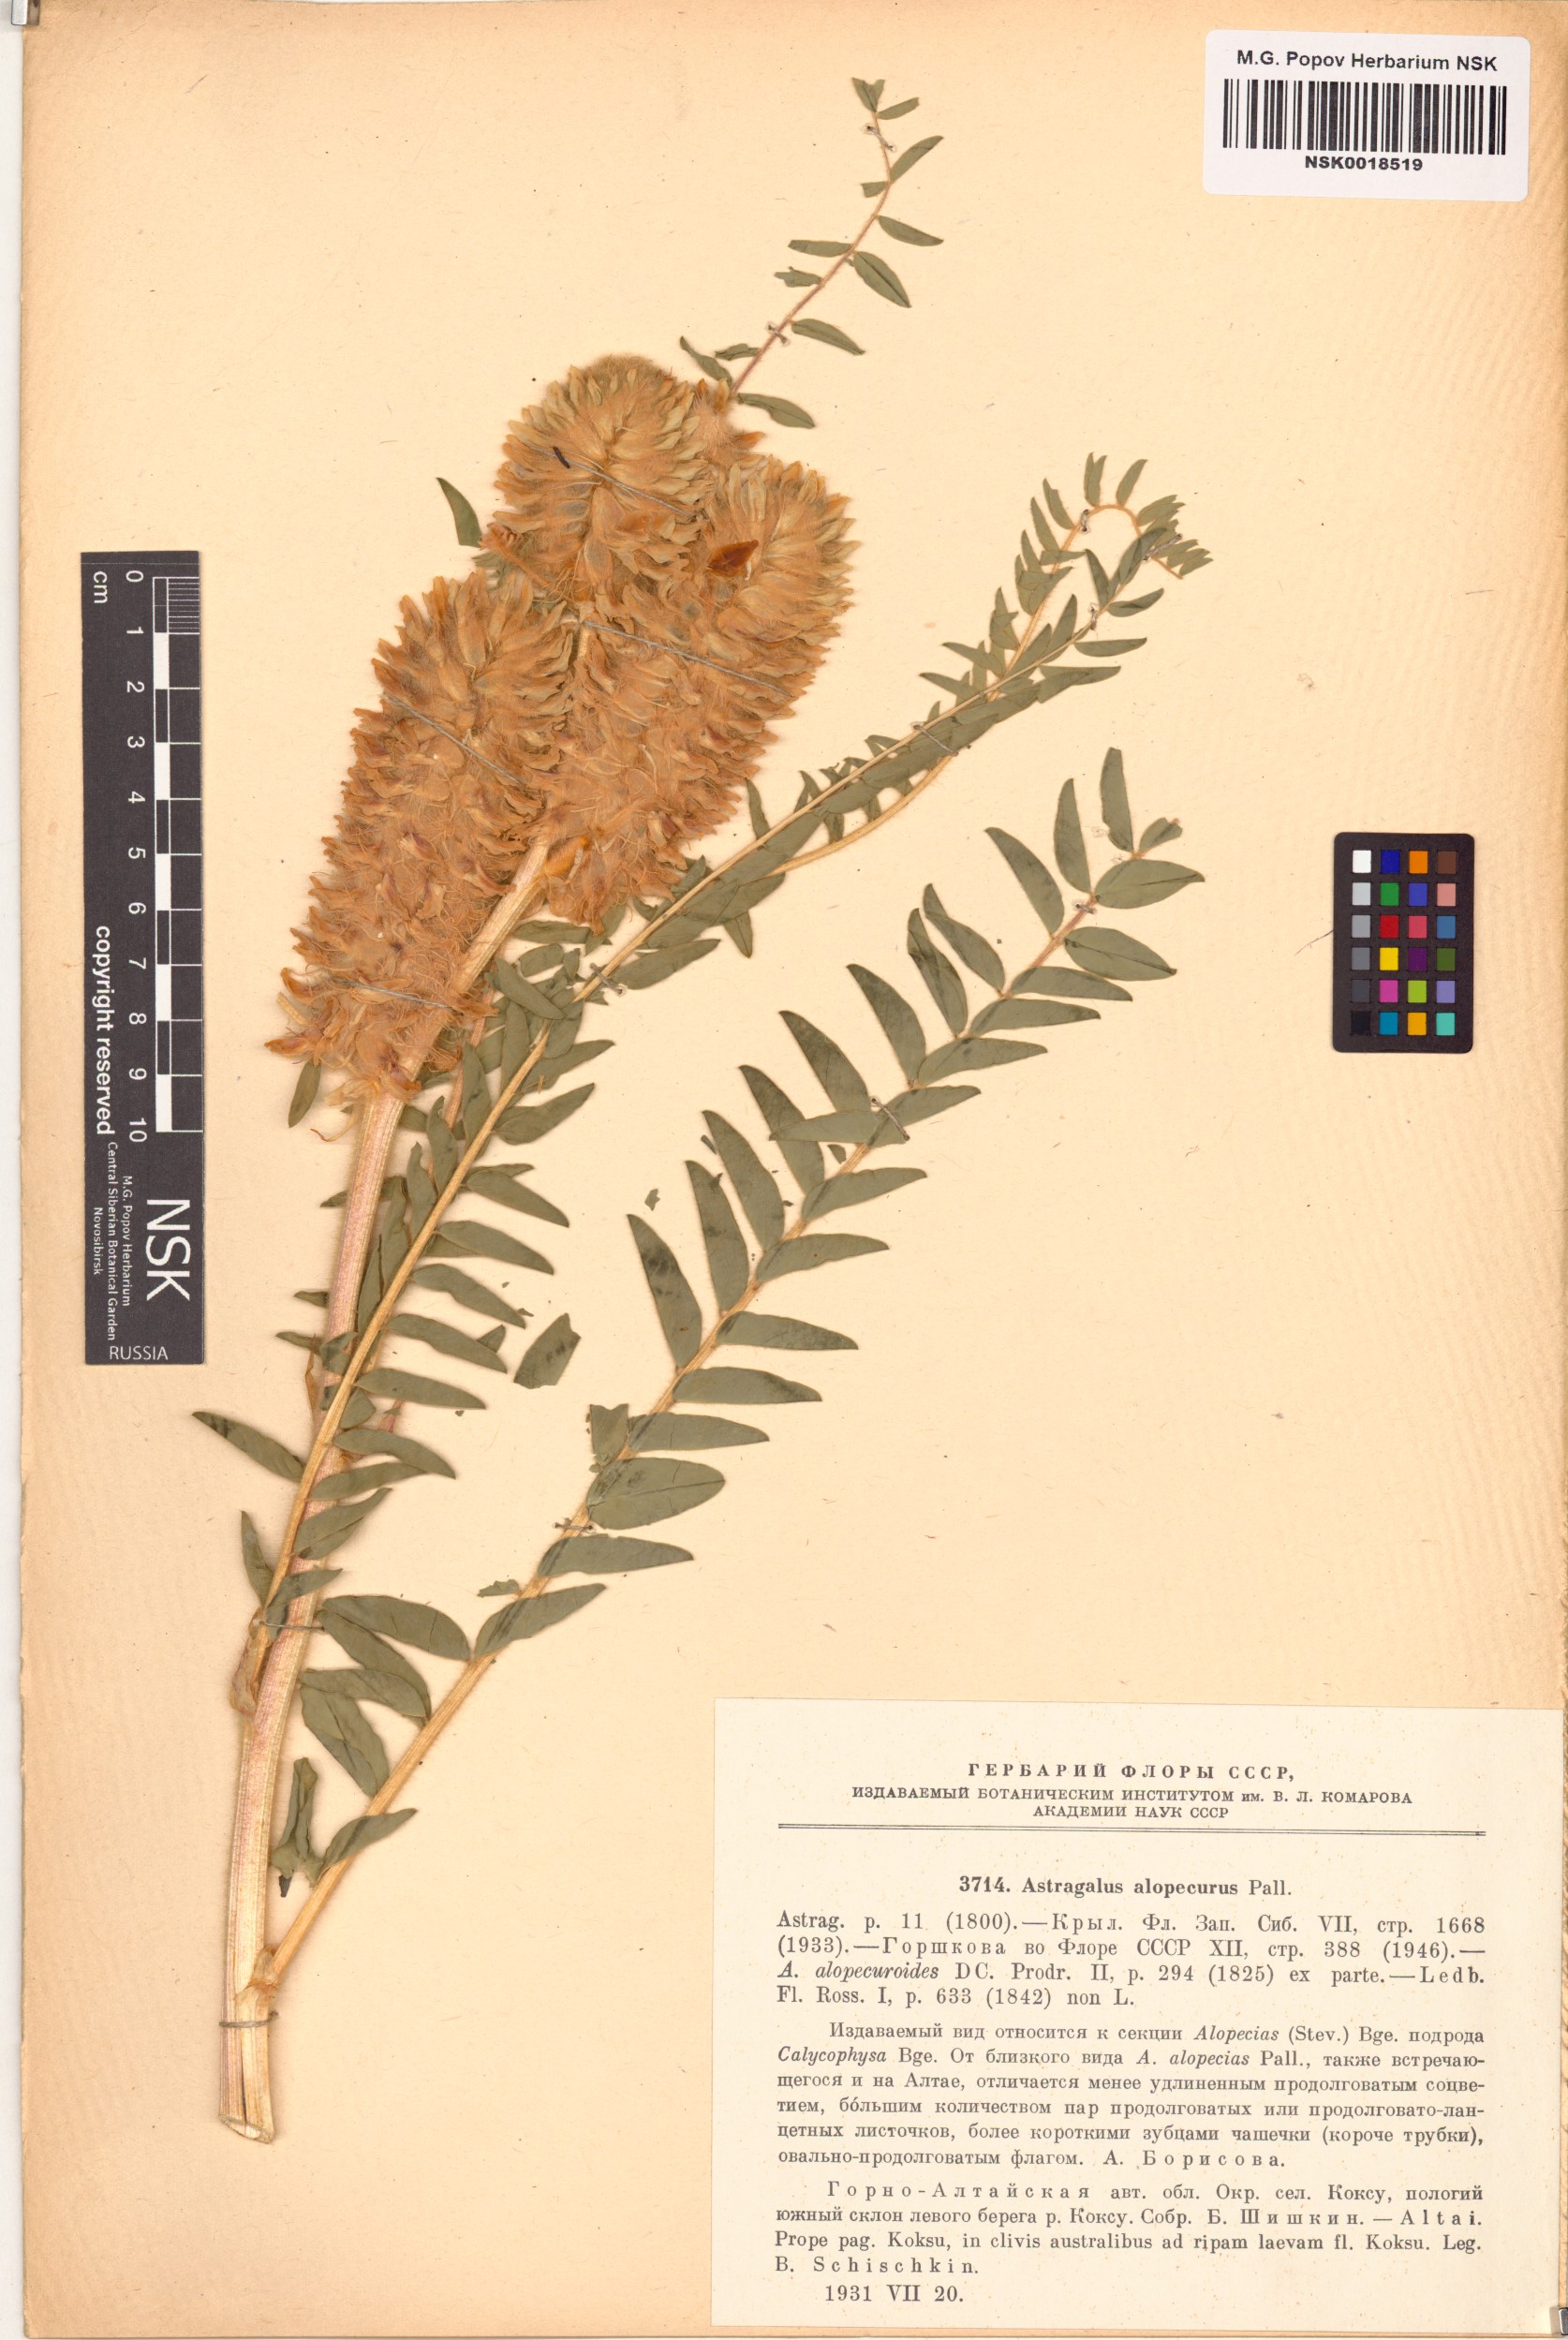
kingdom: Plantae
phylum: Tracheophyta
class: Magnoliopsida
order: Fabales
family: Fabaceae
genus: Astragalus
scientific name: Astragalus alopecurus
